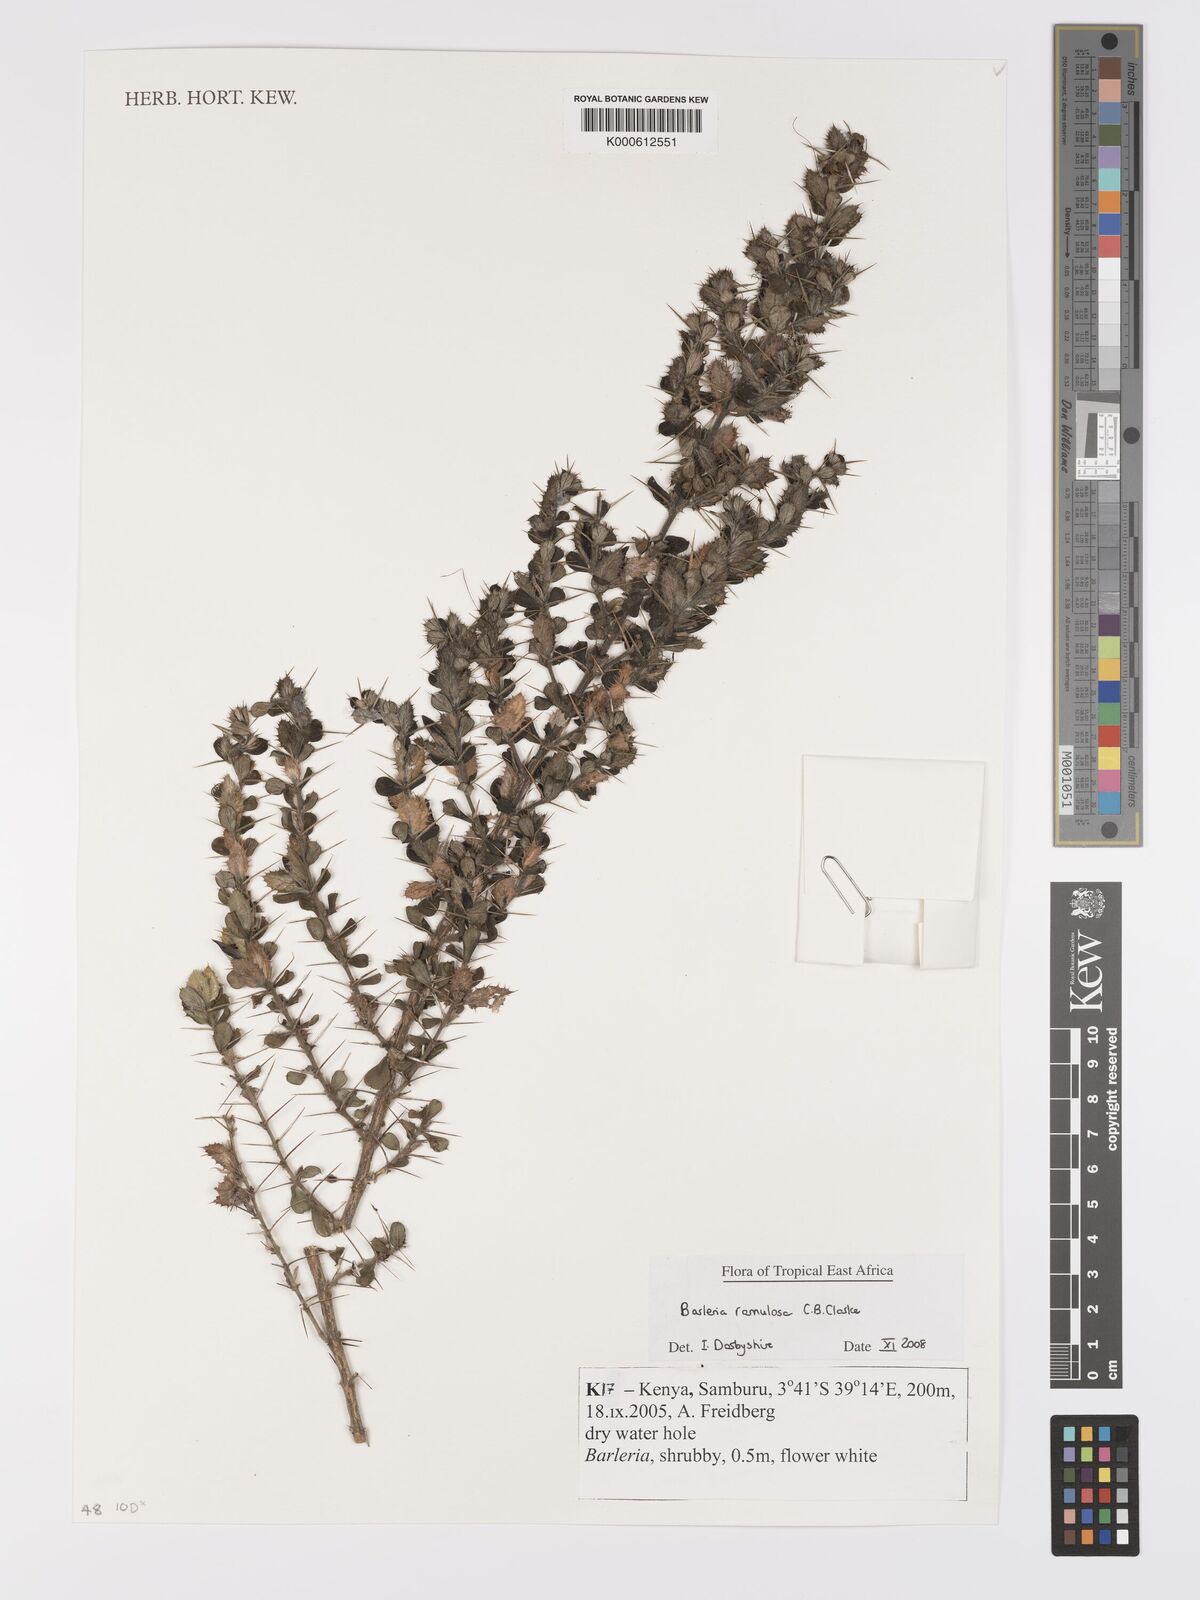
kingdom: Plantae
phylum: Tracheophyta
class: Magnoliopsida
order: Lamiales
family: Acanthaceae
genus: Barleria
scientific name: Barleria ramulosa
